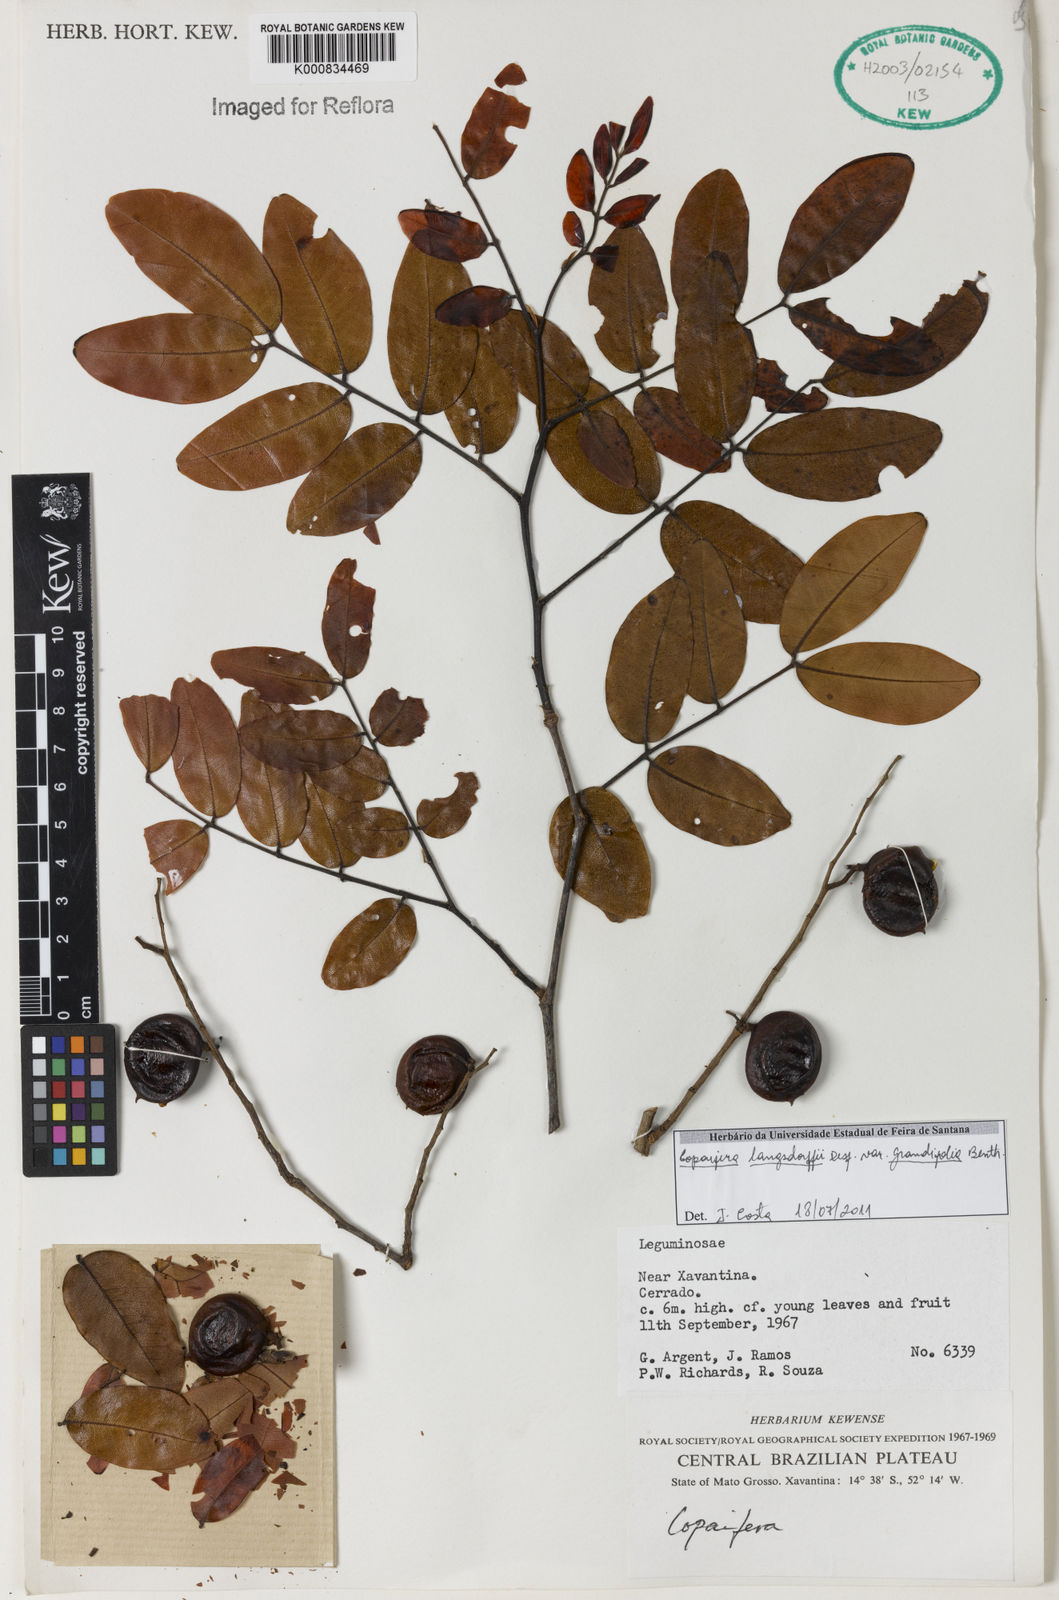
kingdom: Plantae
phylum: Tracheophyta
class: Magnoliopsida
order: Fabales
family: Fabaceae
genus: Copaifera
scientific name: Copaifera langsdorffii
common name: Brazilian diesel tree
